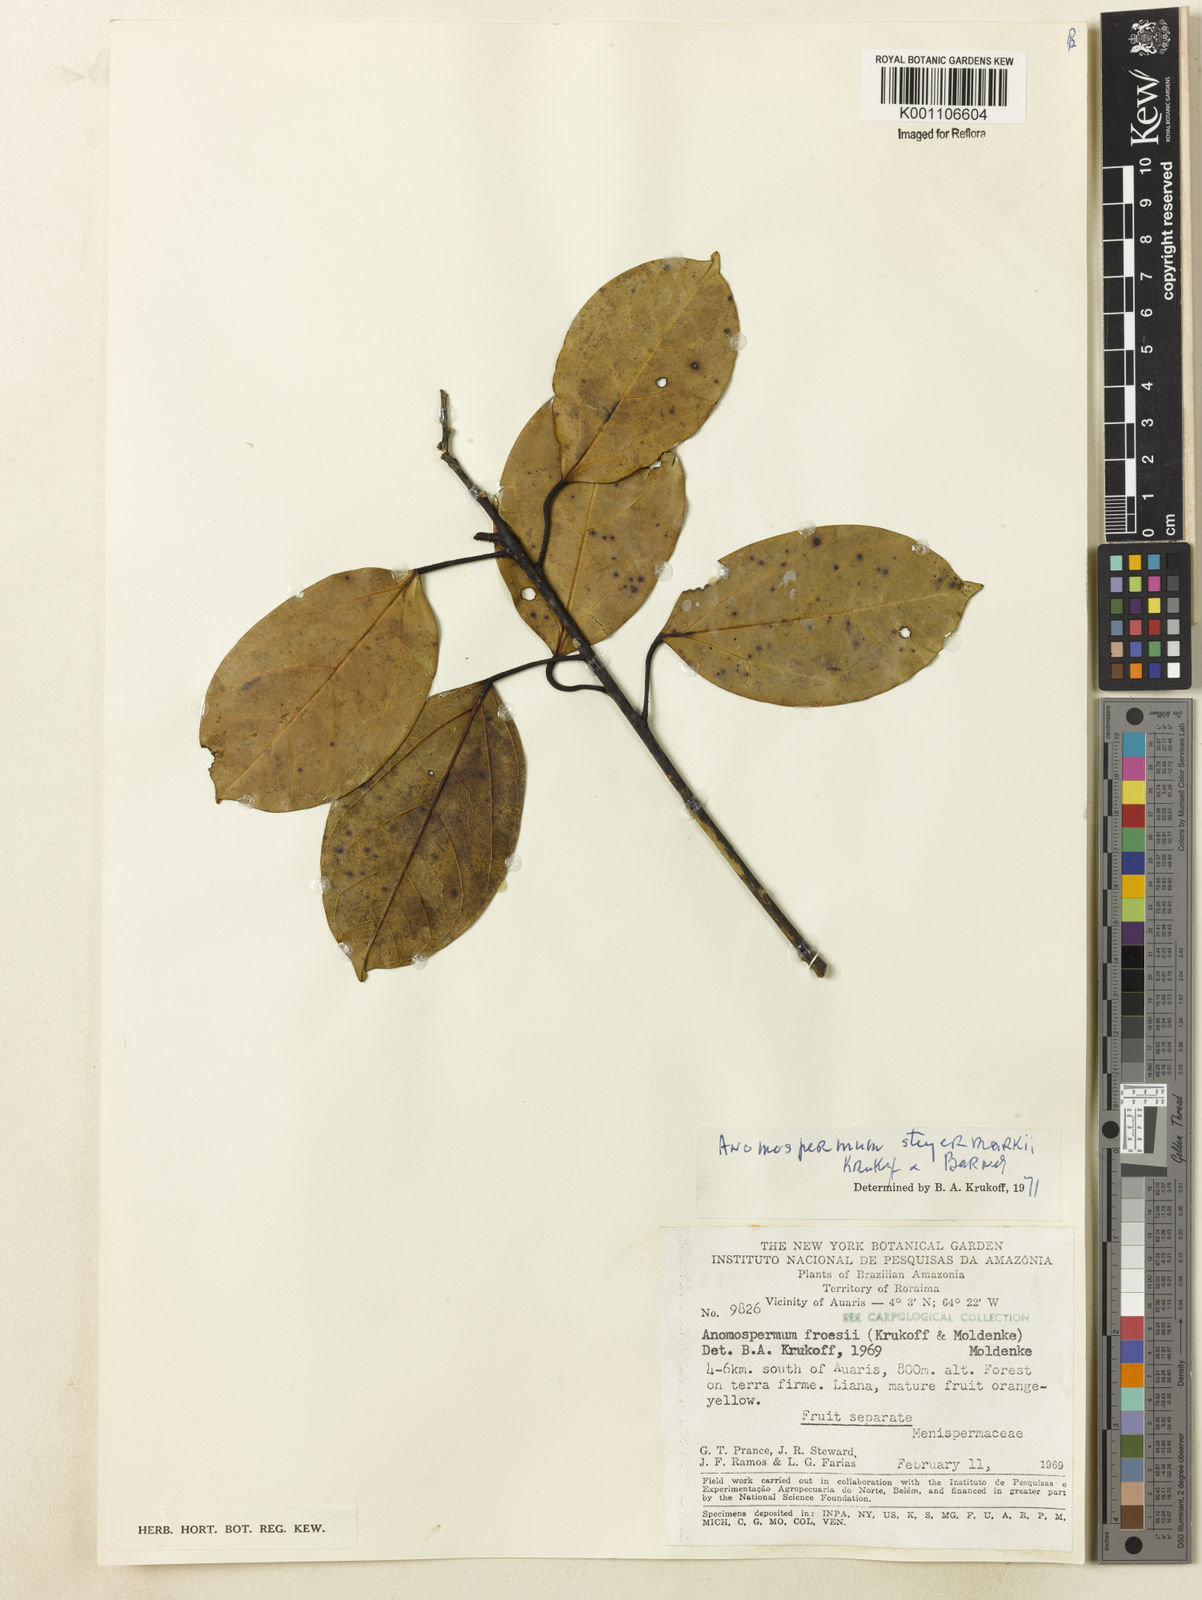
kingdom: Plantae
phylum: Tracheophyta
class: Magnoliopsida
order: Ranunculales
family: Menispermaceae
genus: Abuta
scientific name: Abuta steyermarkii
